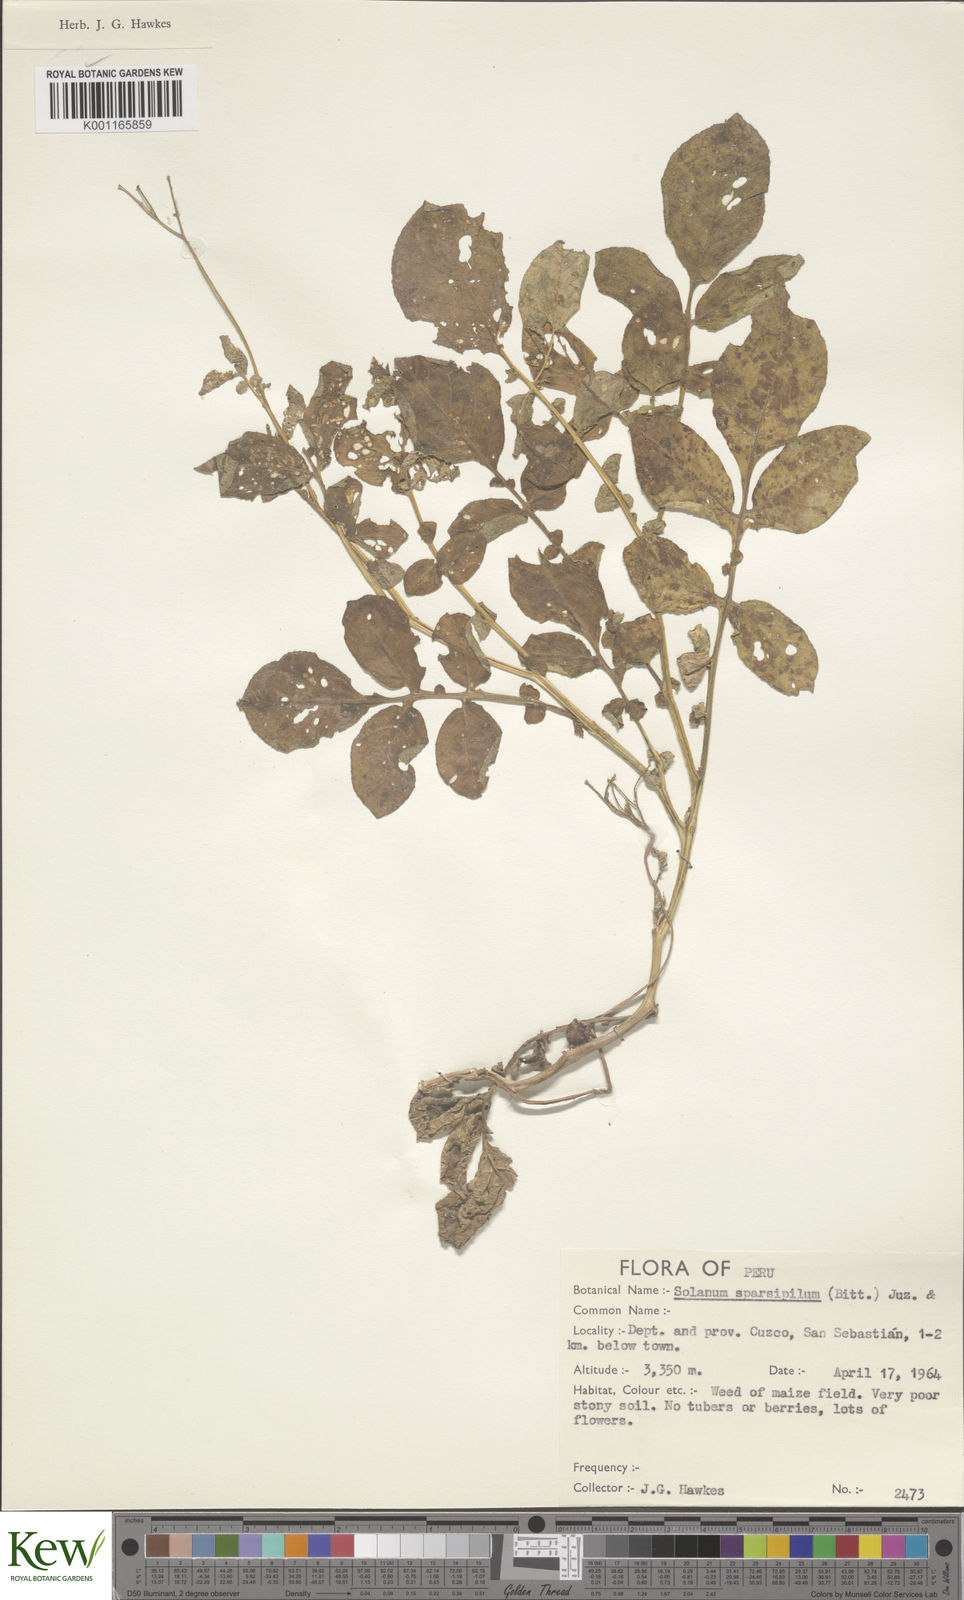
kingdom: Plantae
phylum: Tracheophyta
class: Magnoliopsida
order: Solanales
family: Solanaceae
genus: Solanum
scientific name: Solanum brevicaule
